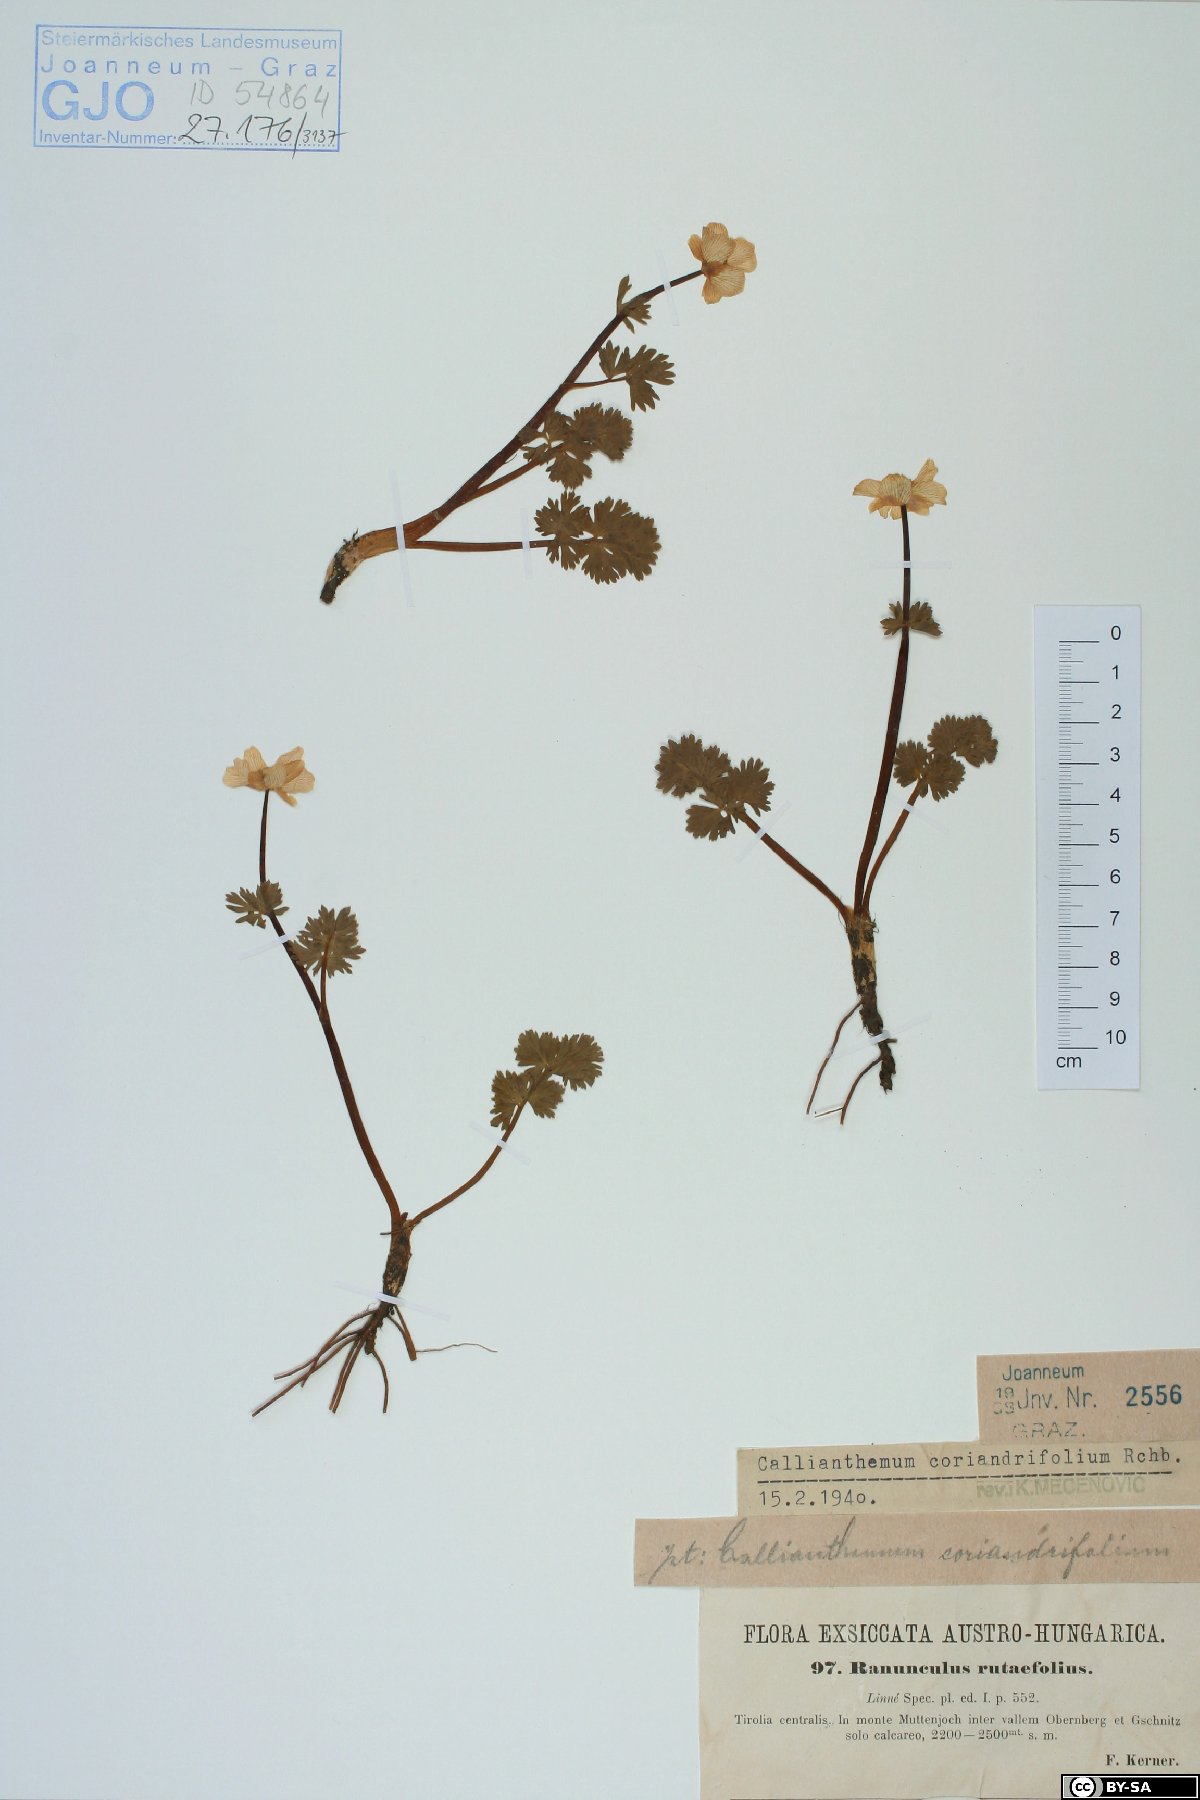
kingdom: Plantae
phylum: Tracheophyta
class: Magnoliopsida
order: Ranunculales
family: Ranunculaceae
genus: Callianthemum
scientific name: Callianthemum coriandrifolium
